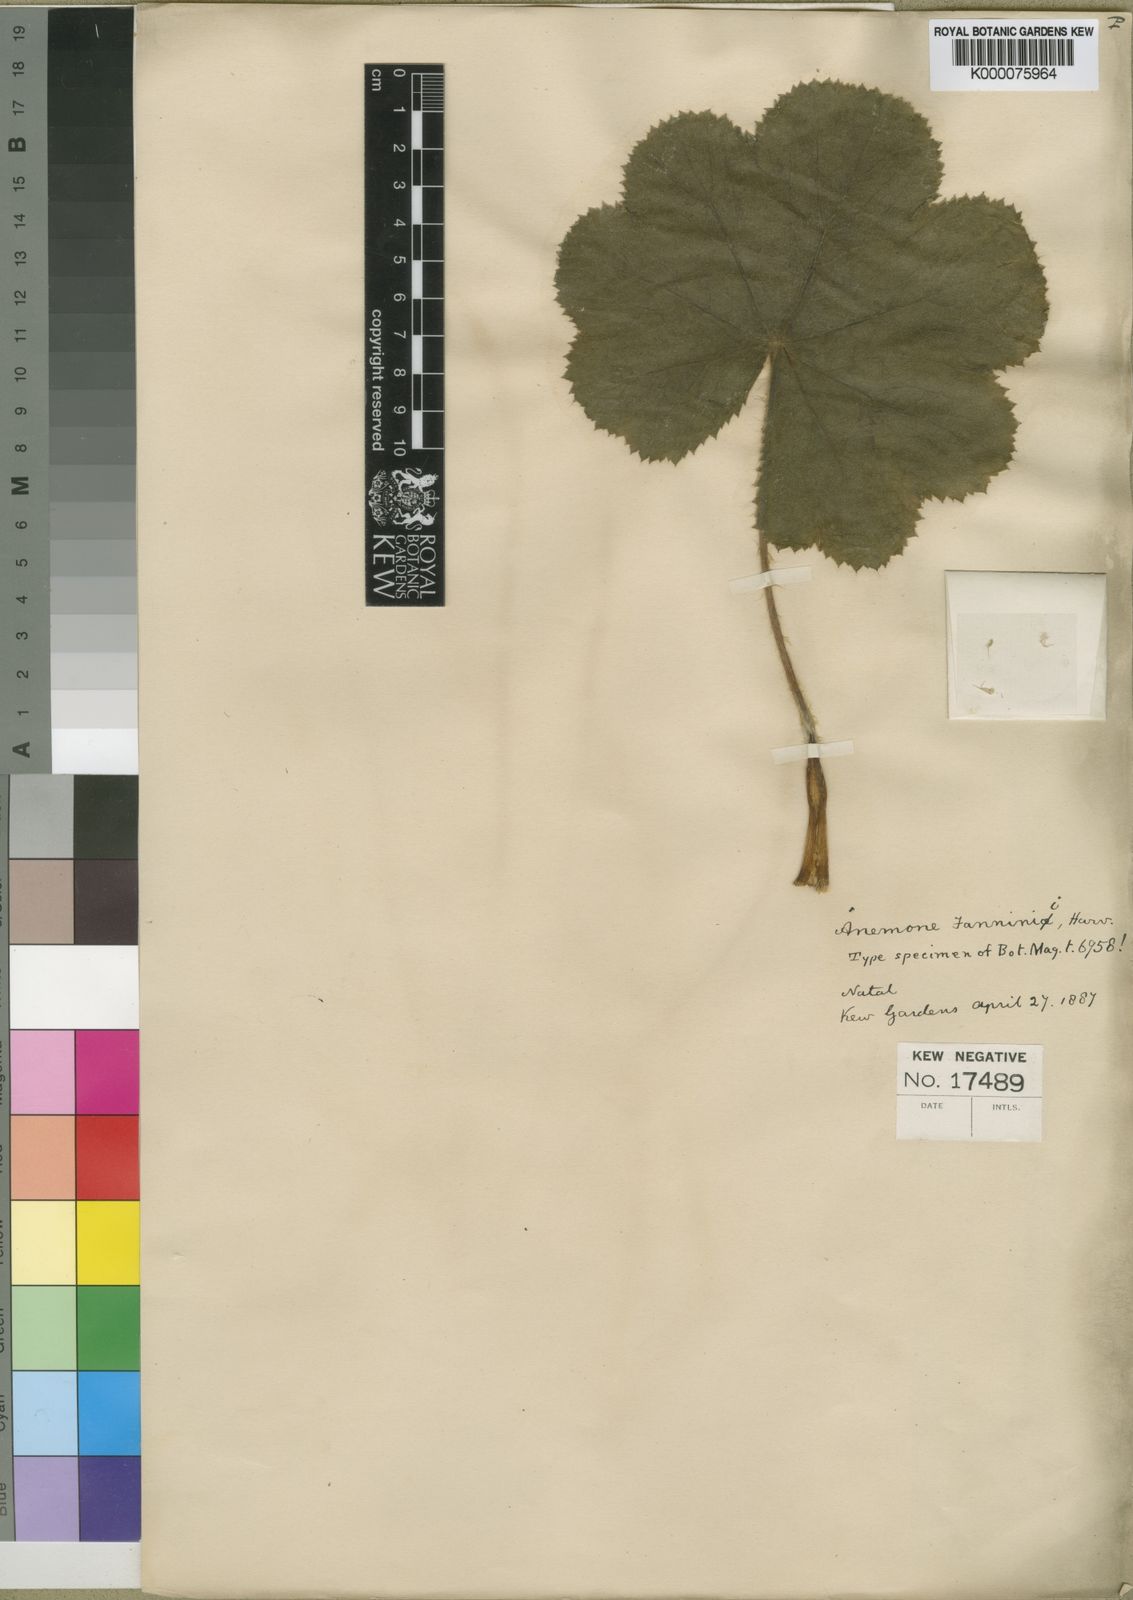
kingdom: Plantae
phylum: Tracheophyta
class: Magnoliopsida
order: Ranunculales
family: Ranunculaceae
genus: Knowltonia
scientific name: Knowltonia fanninii
